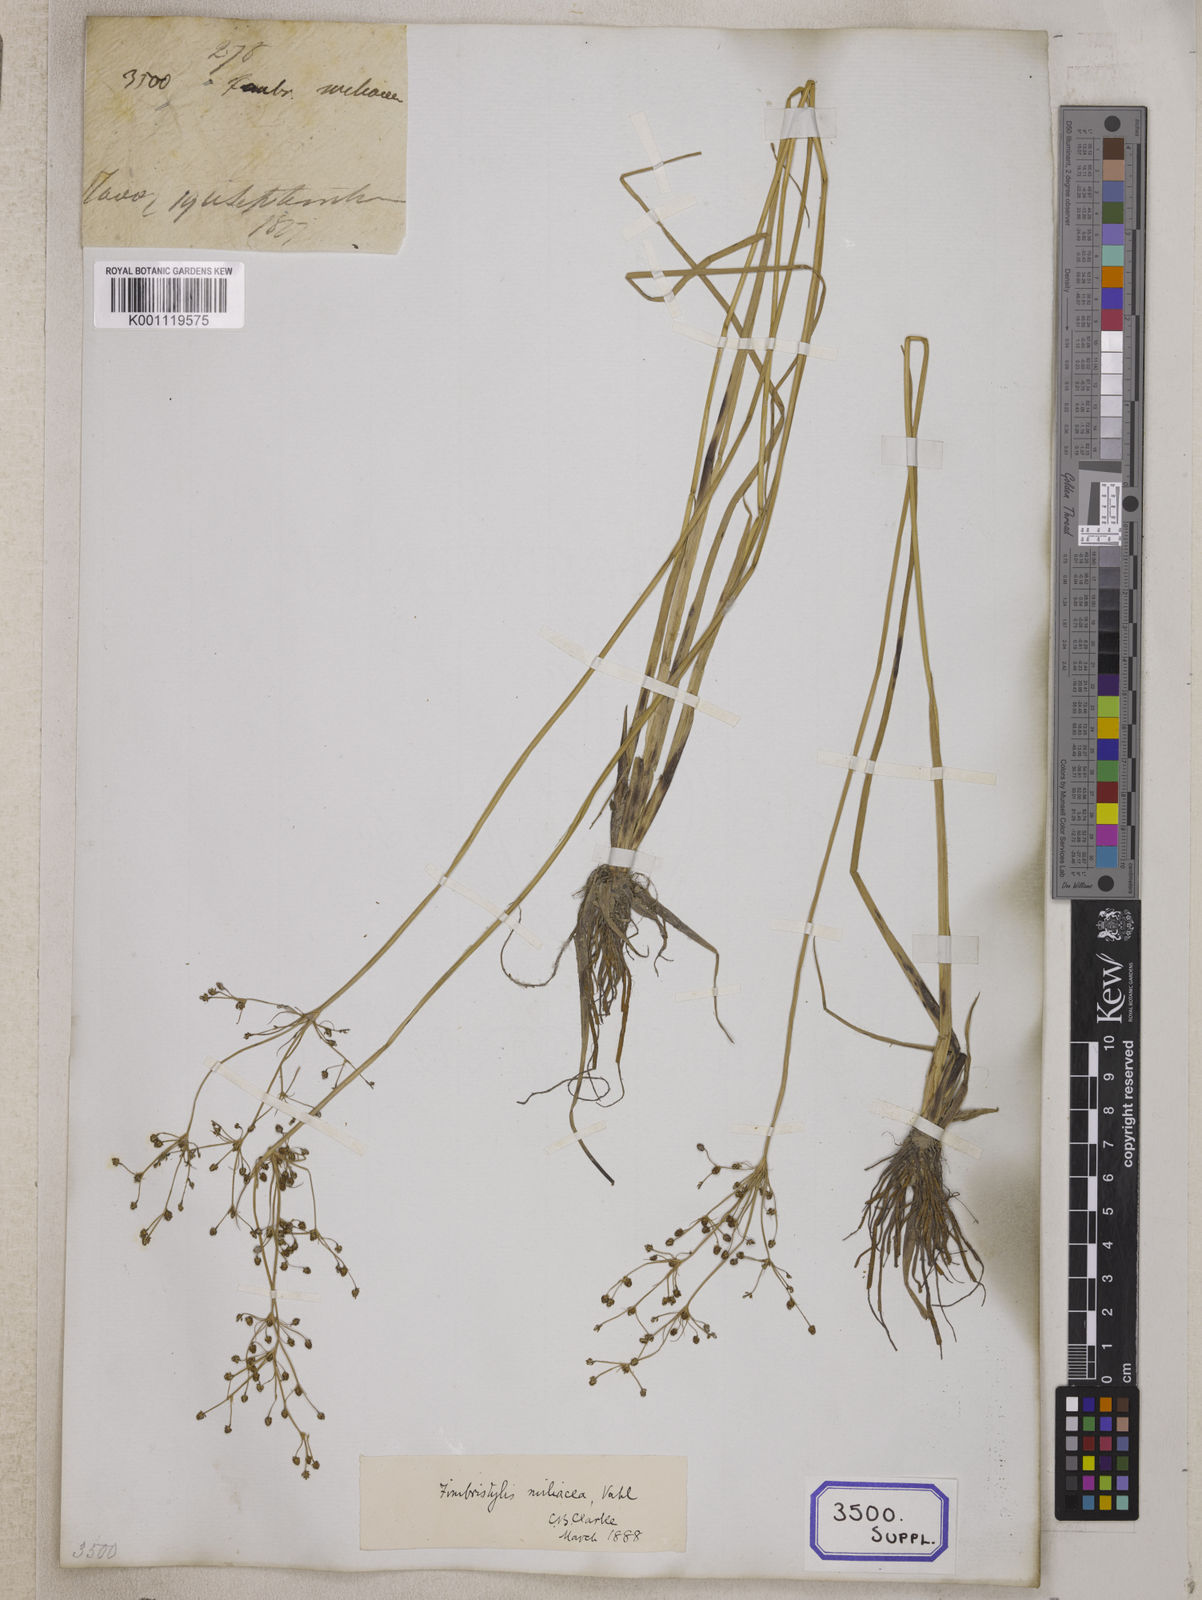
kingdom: Plantae
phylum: Tracheophyta
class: Liliopsida
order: Poales
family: Cyperaceae
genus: Fimbristylis
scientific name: Fimbristylis
